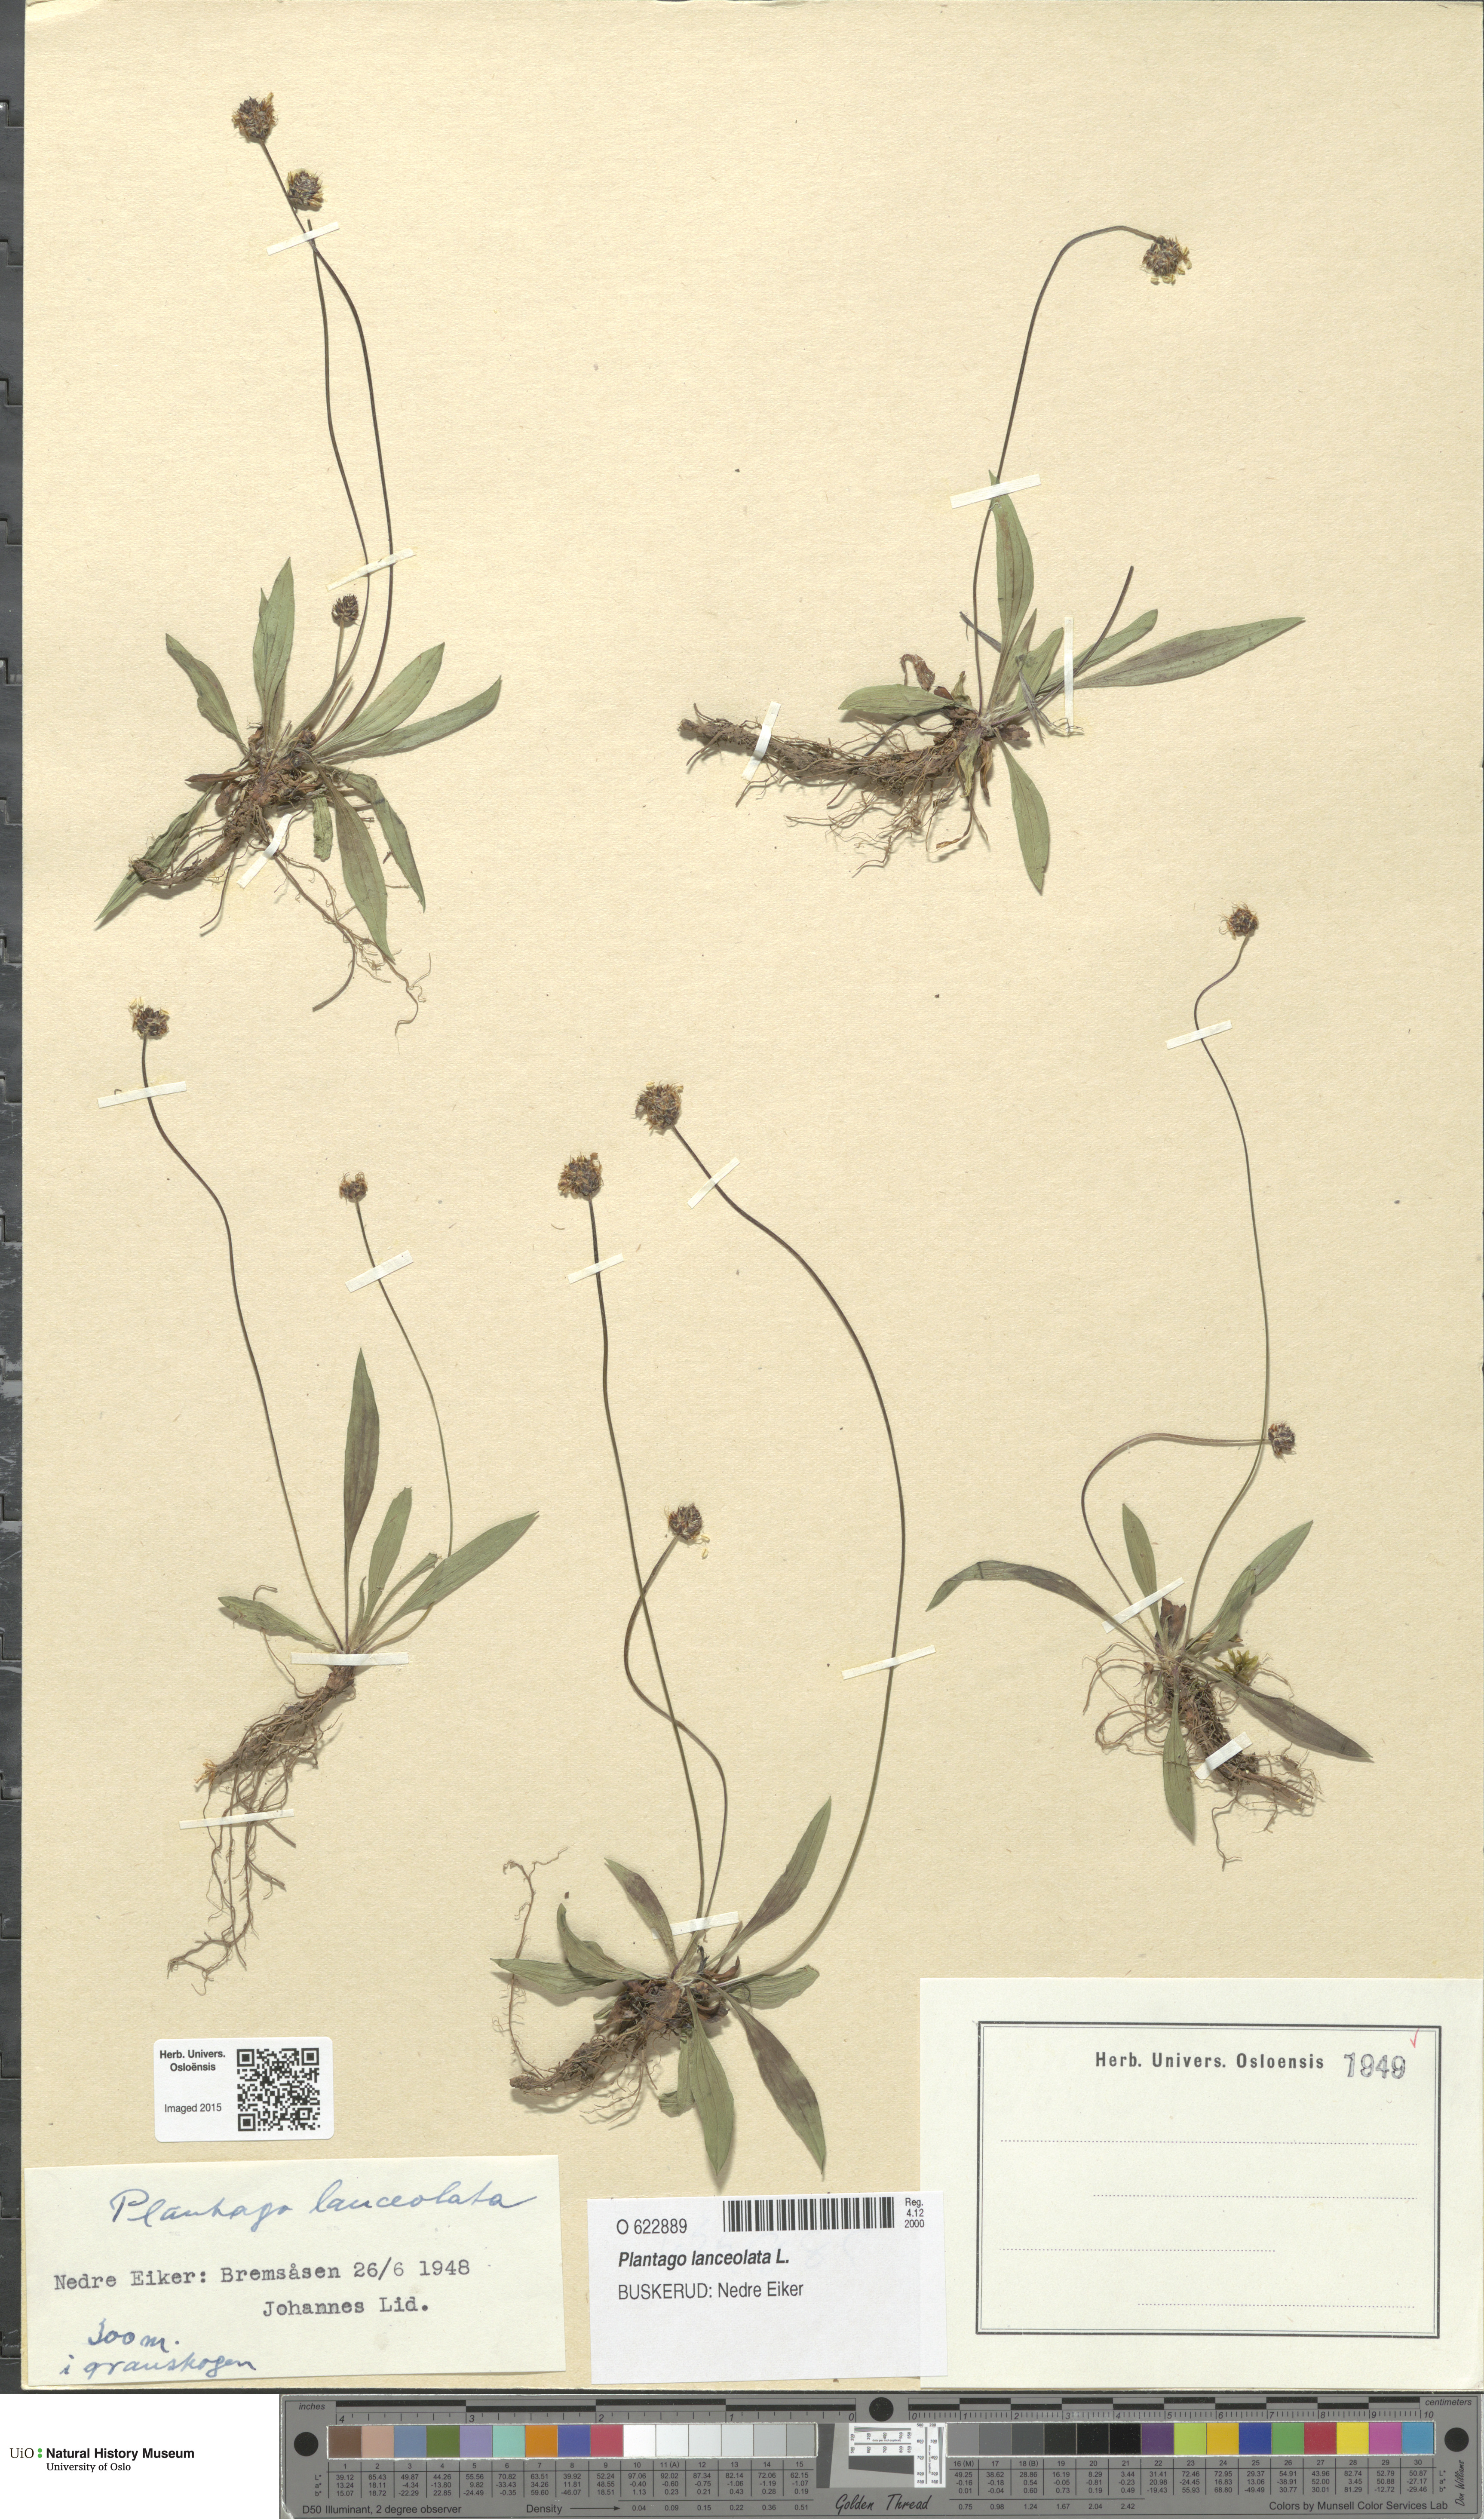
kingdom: Plantae
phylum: Tracheophyta
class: Magnoliopsida
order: Lamiales
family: Plantaginaceae
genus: Plantago
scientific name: Plantago lanceolata
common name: Ribwort plantain
